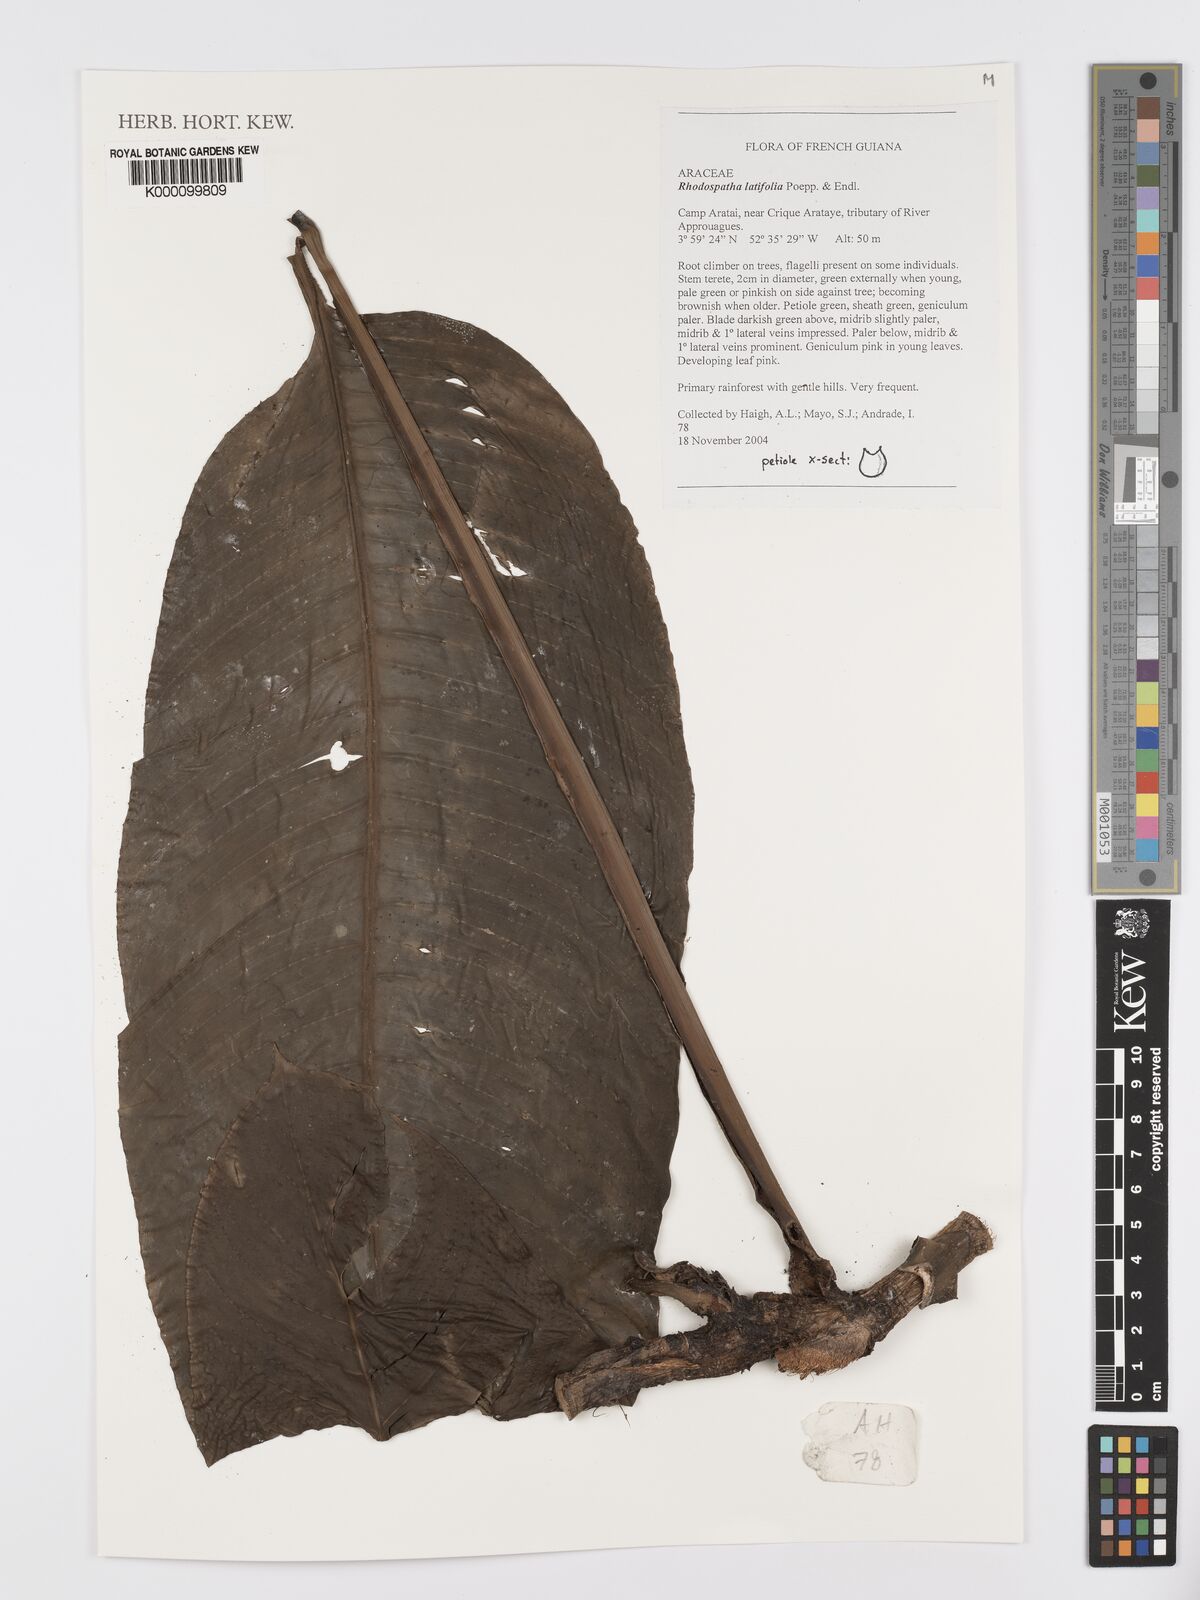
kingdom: Plantae
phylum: Tracheophyta
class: Liliopsida
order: Alismatales
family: Araceae
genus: Rhodospatha
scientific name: Rhodospatha latifolia
